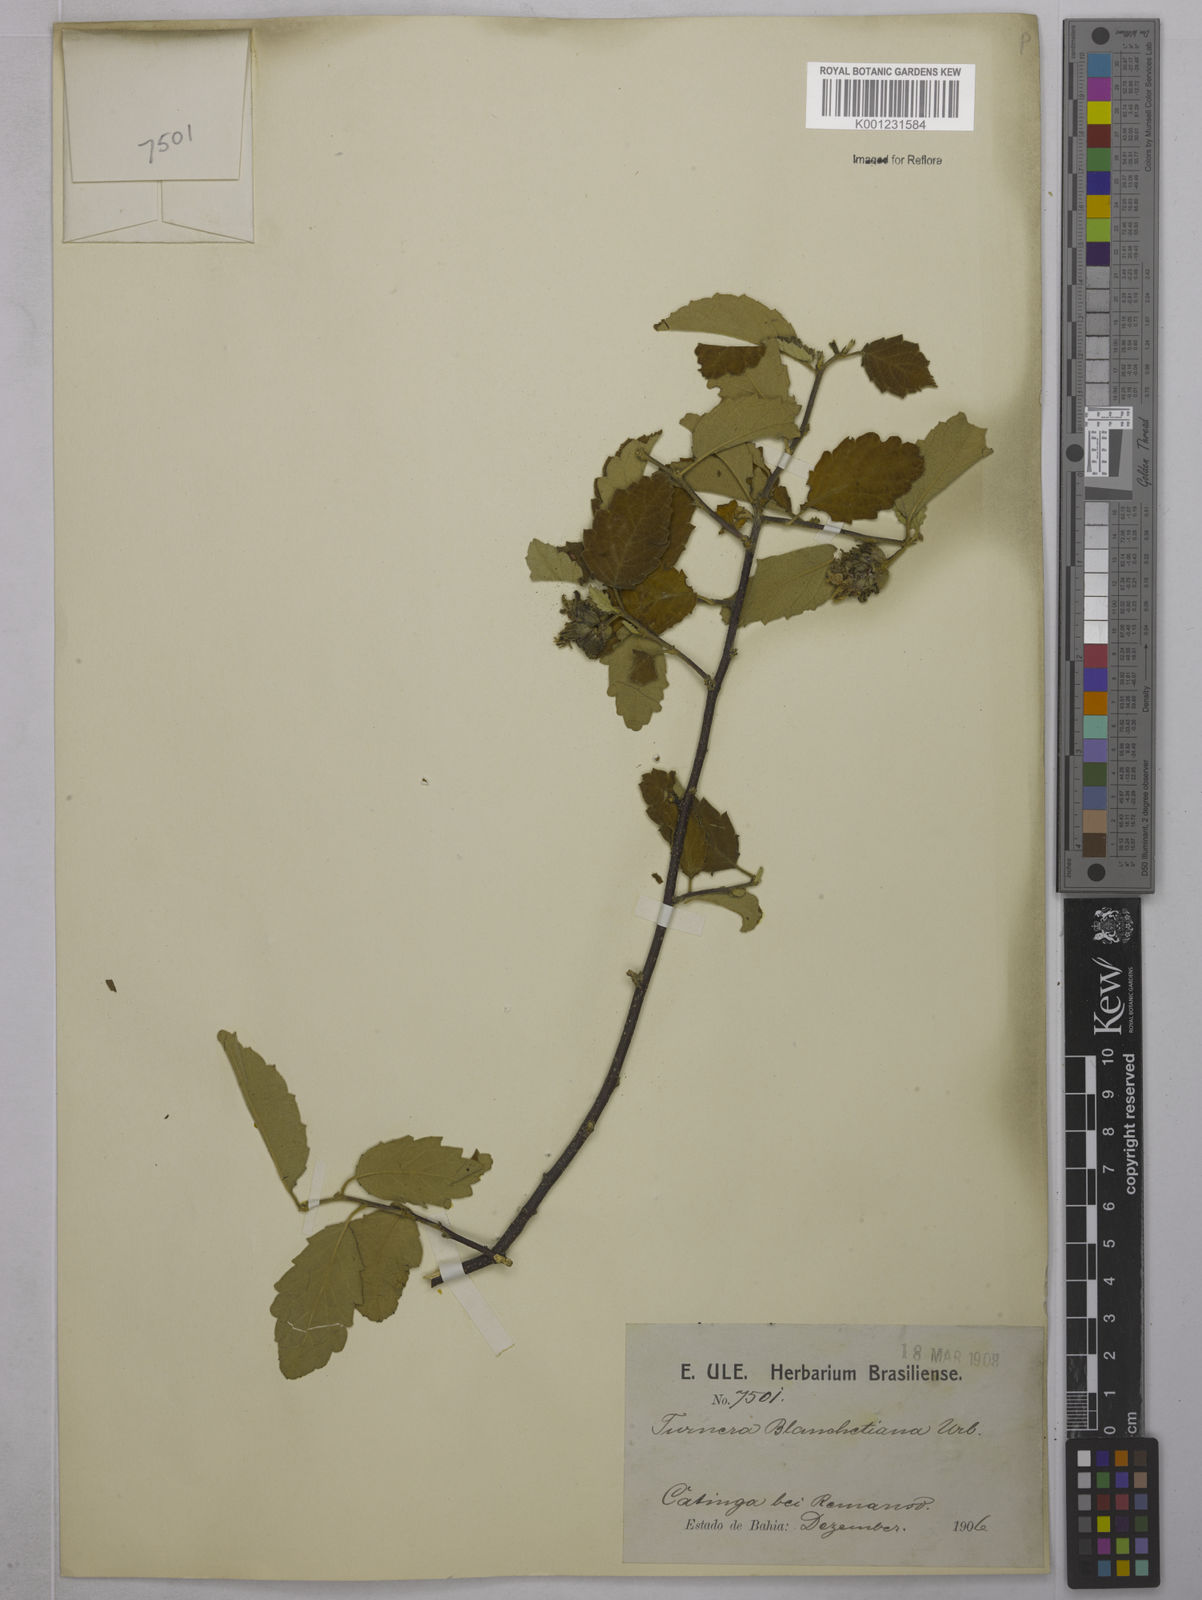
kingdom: Plantae
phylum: Tracheophyta
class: Magnoliopsida
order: Malpighiales
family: Turneraceae
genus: Turnera
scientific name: Turnera blanchetiana
